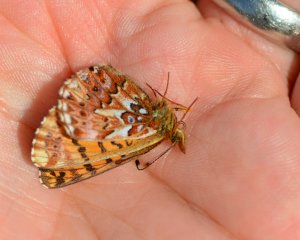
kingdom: Animalia
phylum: Arthropoda
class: Insecta
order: Lepidoptera
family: Nymphalidae
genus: Boloria
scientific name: Boloria chariclea
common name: Arctic Fritillary
